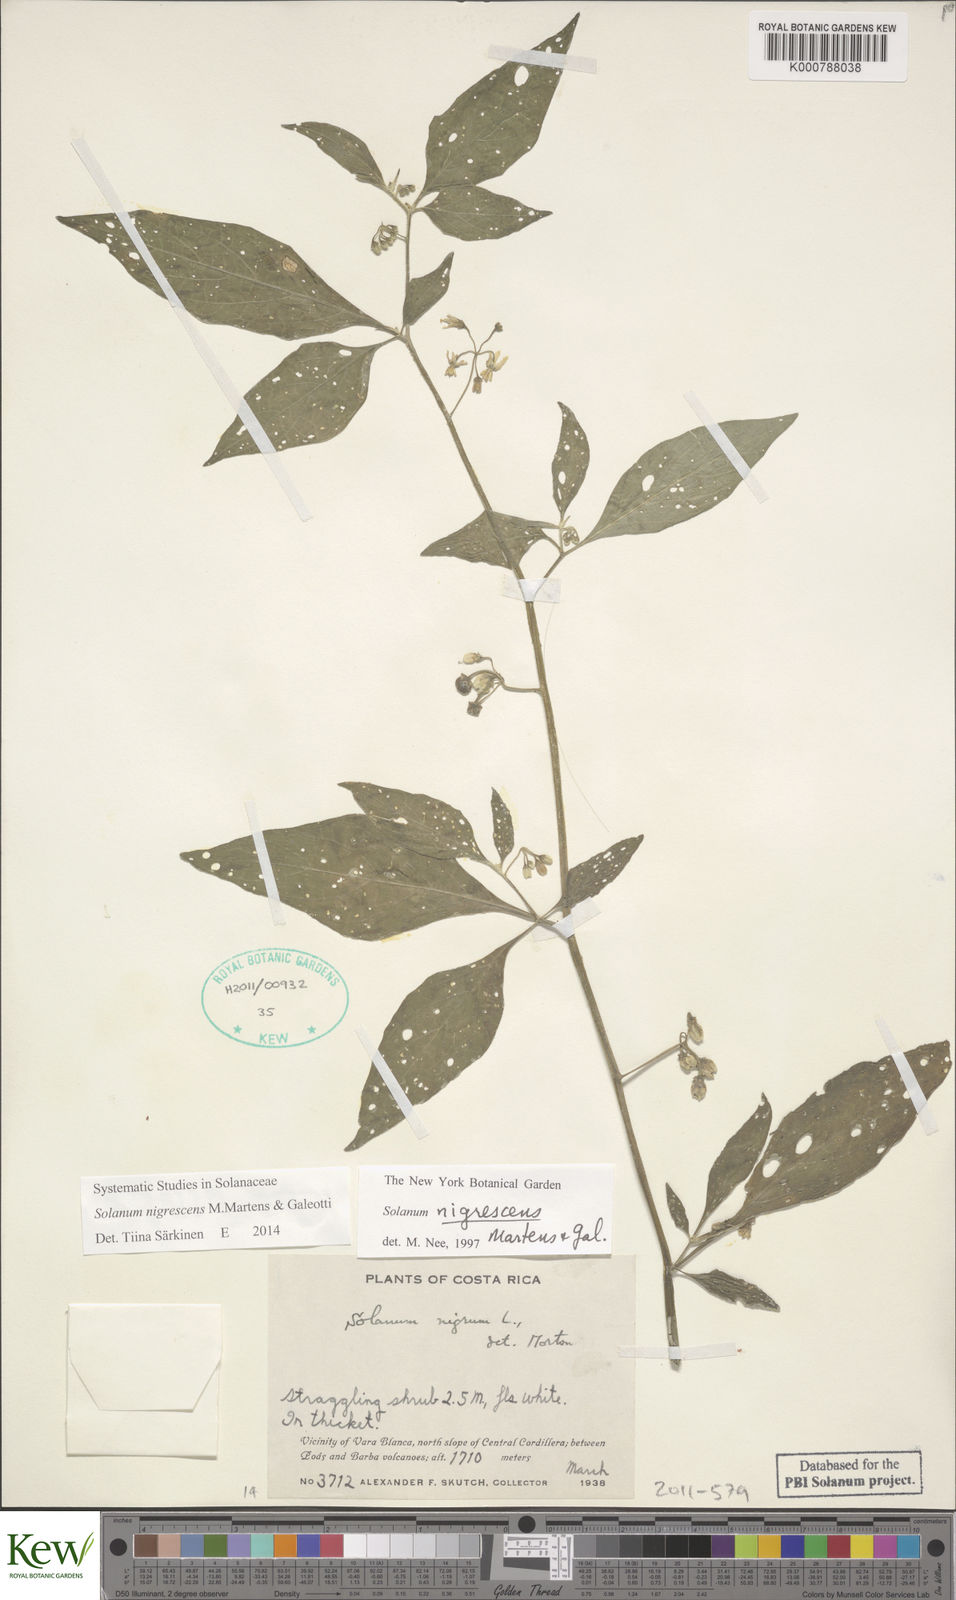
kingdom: Plantae
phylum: Tracheophyta
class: Magnoliopsida
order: Solanales
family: Solanaceae
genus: Solanum
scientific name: Solanum macrotonum
